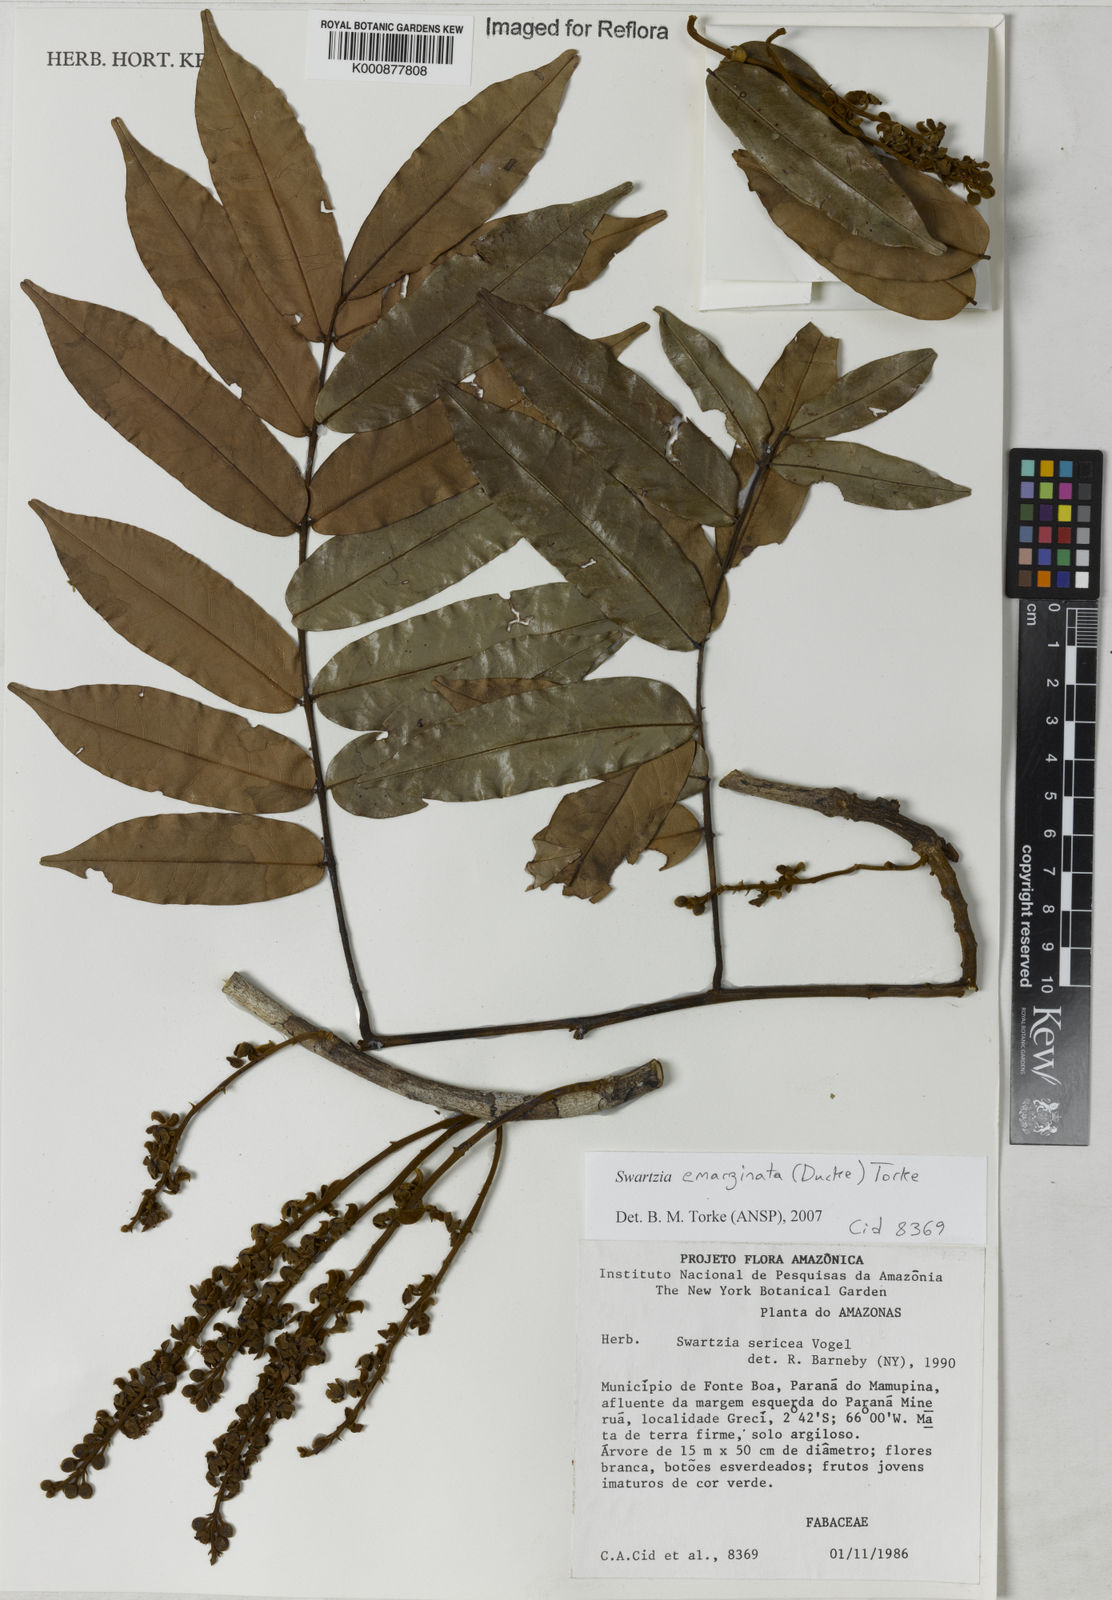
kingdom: Plantae
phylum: Tracheophyta
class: Magnoliopsida
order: Fabales
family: Fabaceae
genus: Swartzia
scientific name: Swartzia emarginata
